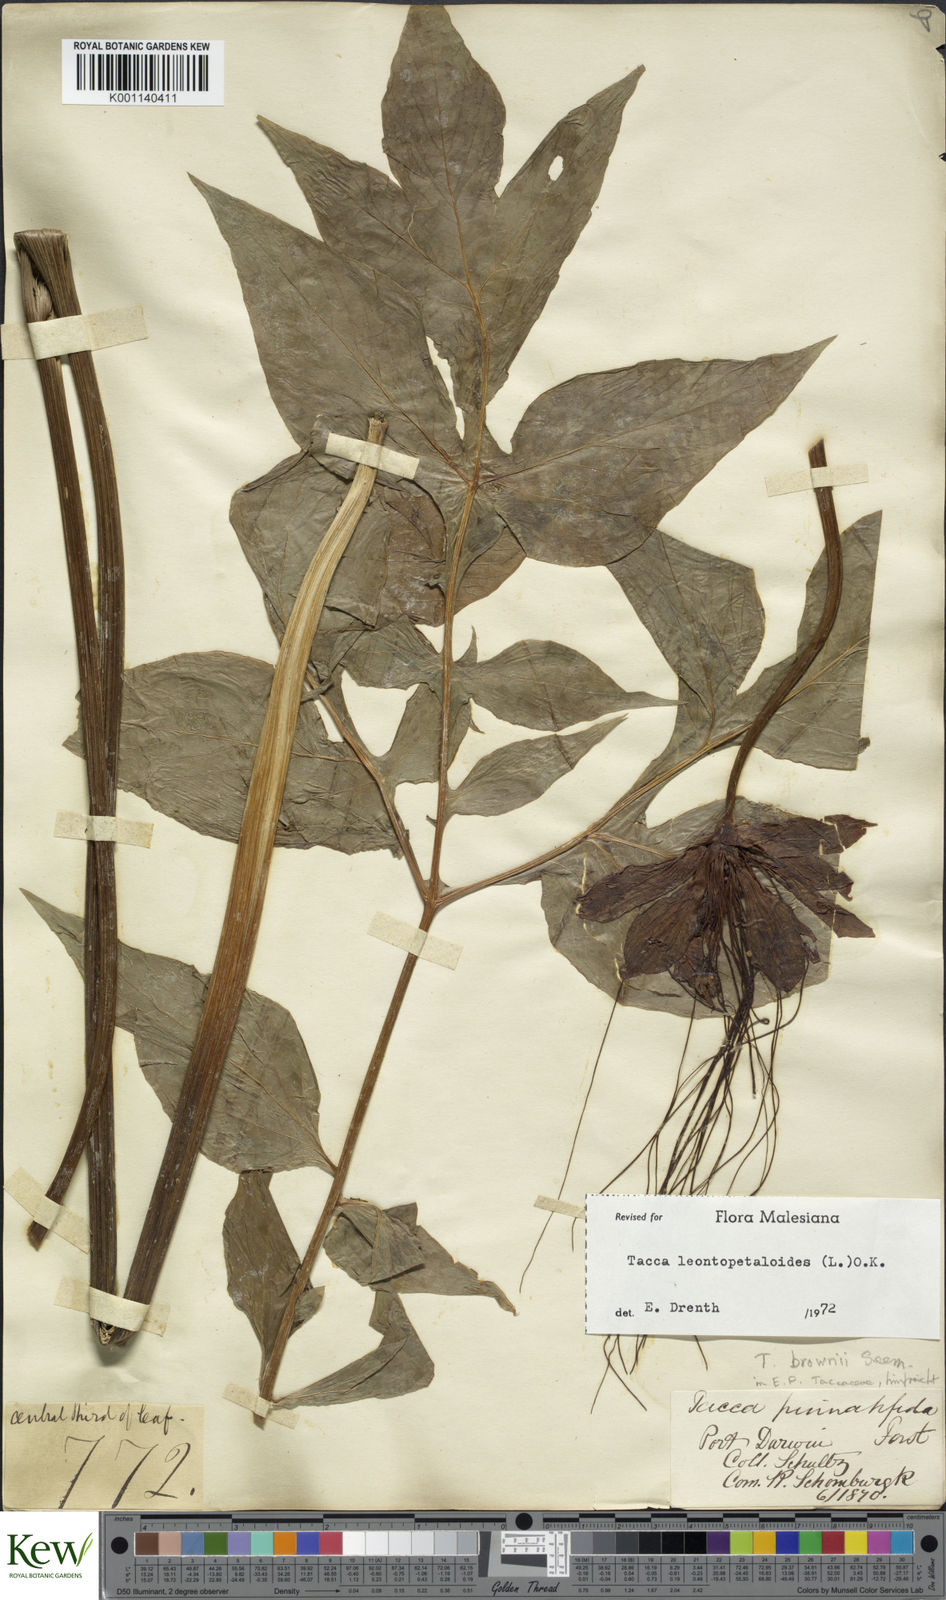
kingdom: Plantae
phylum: Tracheophyta
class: Liliopsida
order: Dioscoreales
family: Dioscoreaceae
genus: Tacca
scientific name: Tacca leontopetaloides
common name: Arrowroot
